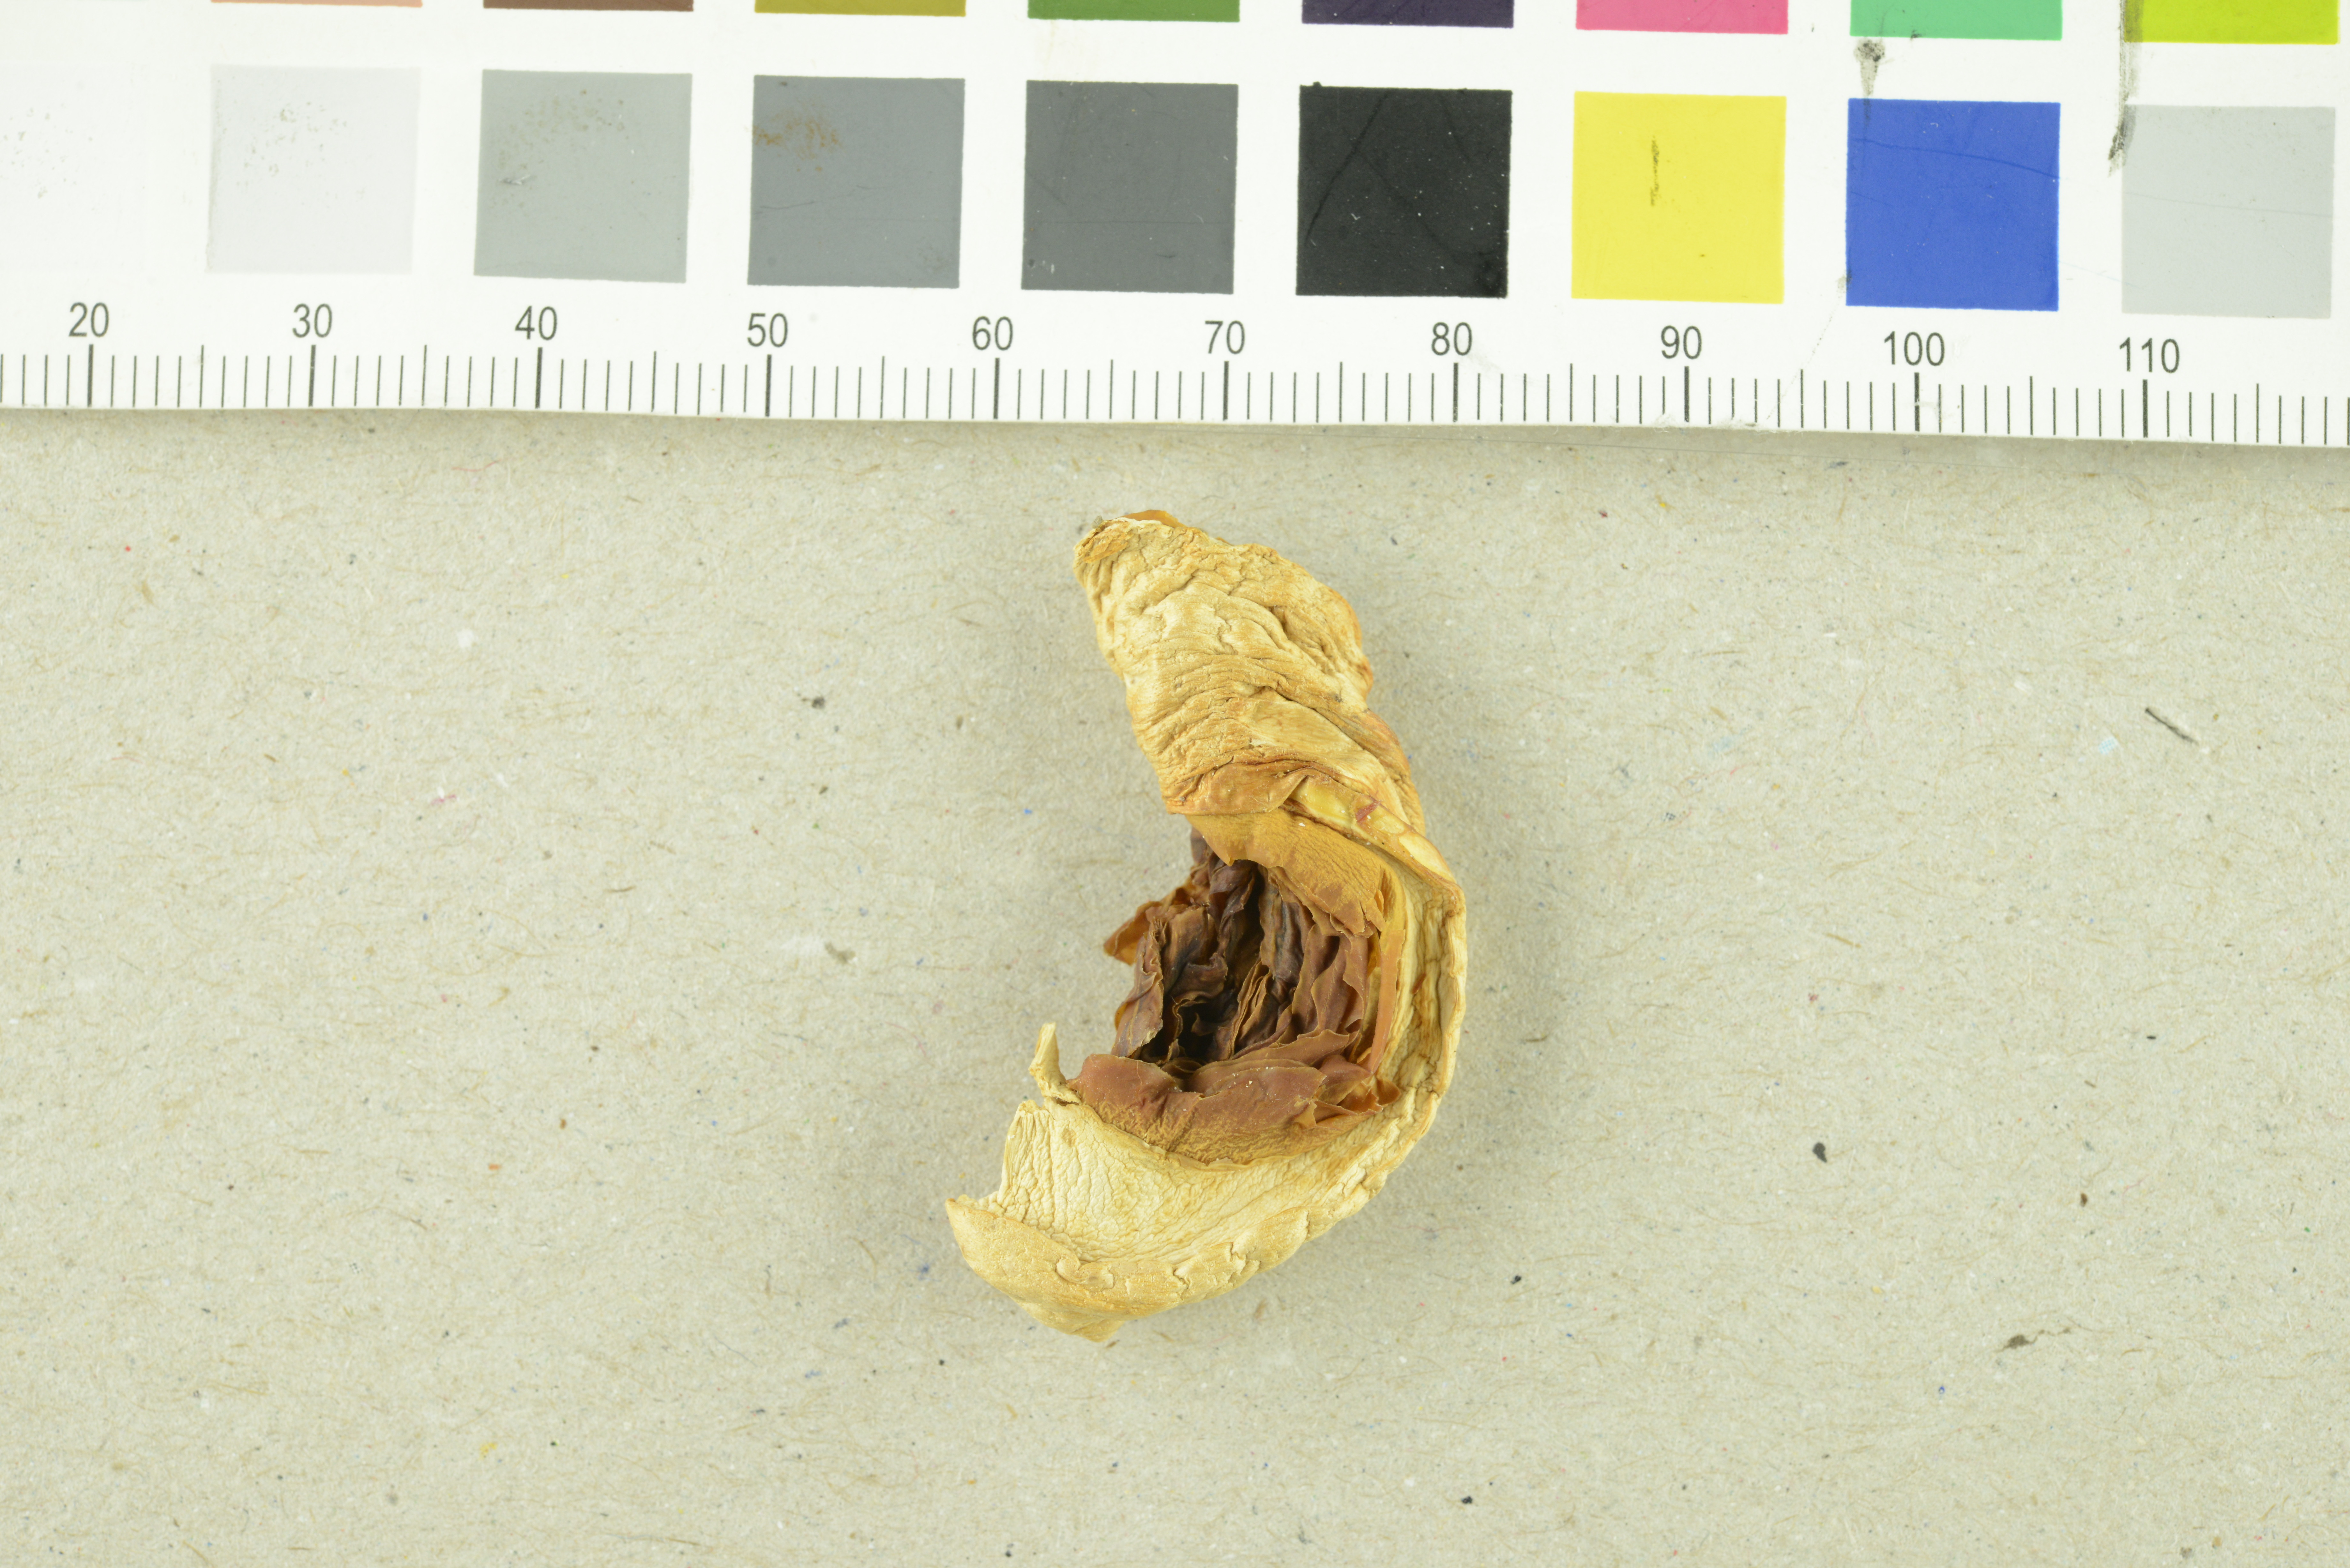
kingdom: Fungi
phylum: Basidiomycota
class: Agaricomycetes
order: Agaricales
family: Agaricaceae
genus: Agaricus
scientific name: Agaricus macrocarpus
